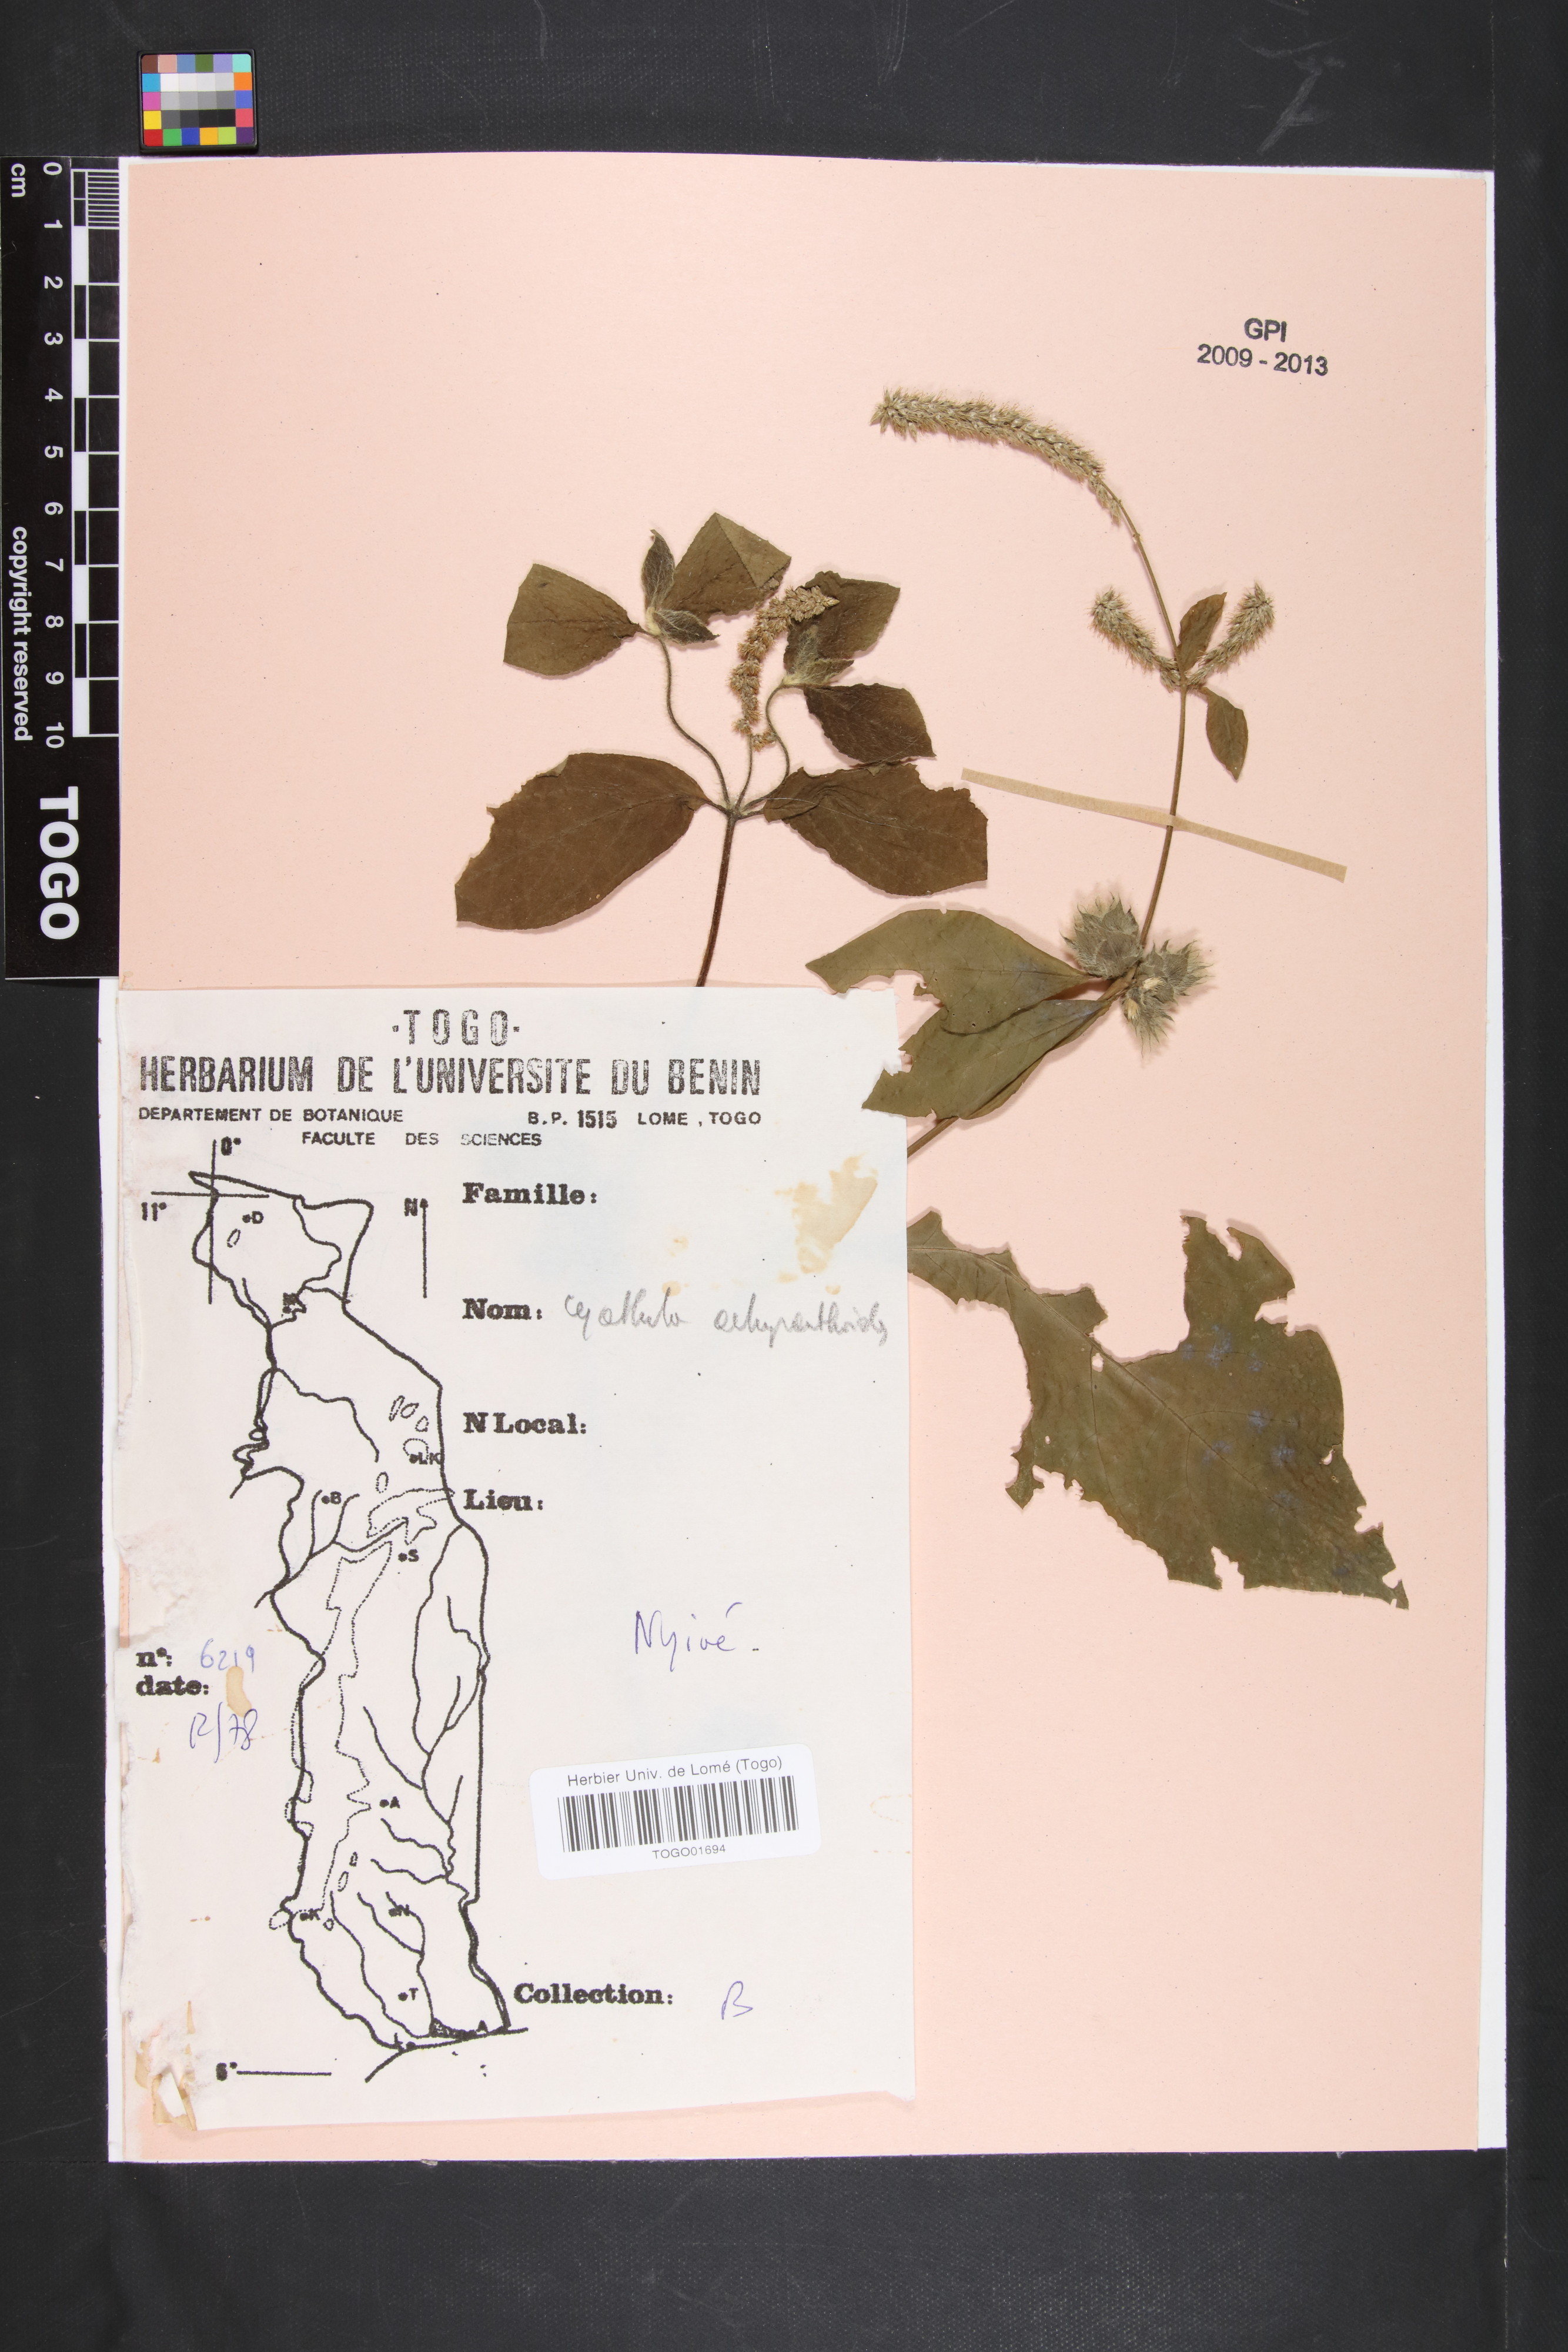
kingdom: Plantae
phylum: Tracheophyta
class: Magnoliopsida
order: Caryophyllales
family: Amaranthaceae
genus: Cyathula
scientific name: Cyathula achyranthoides
